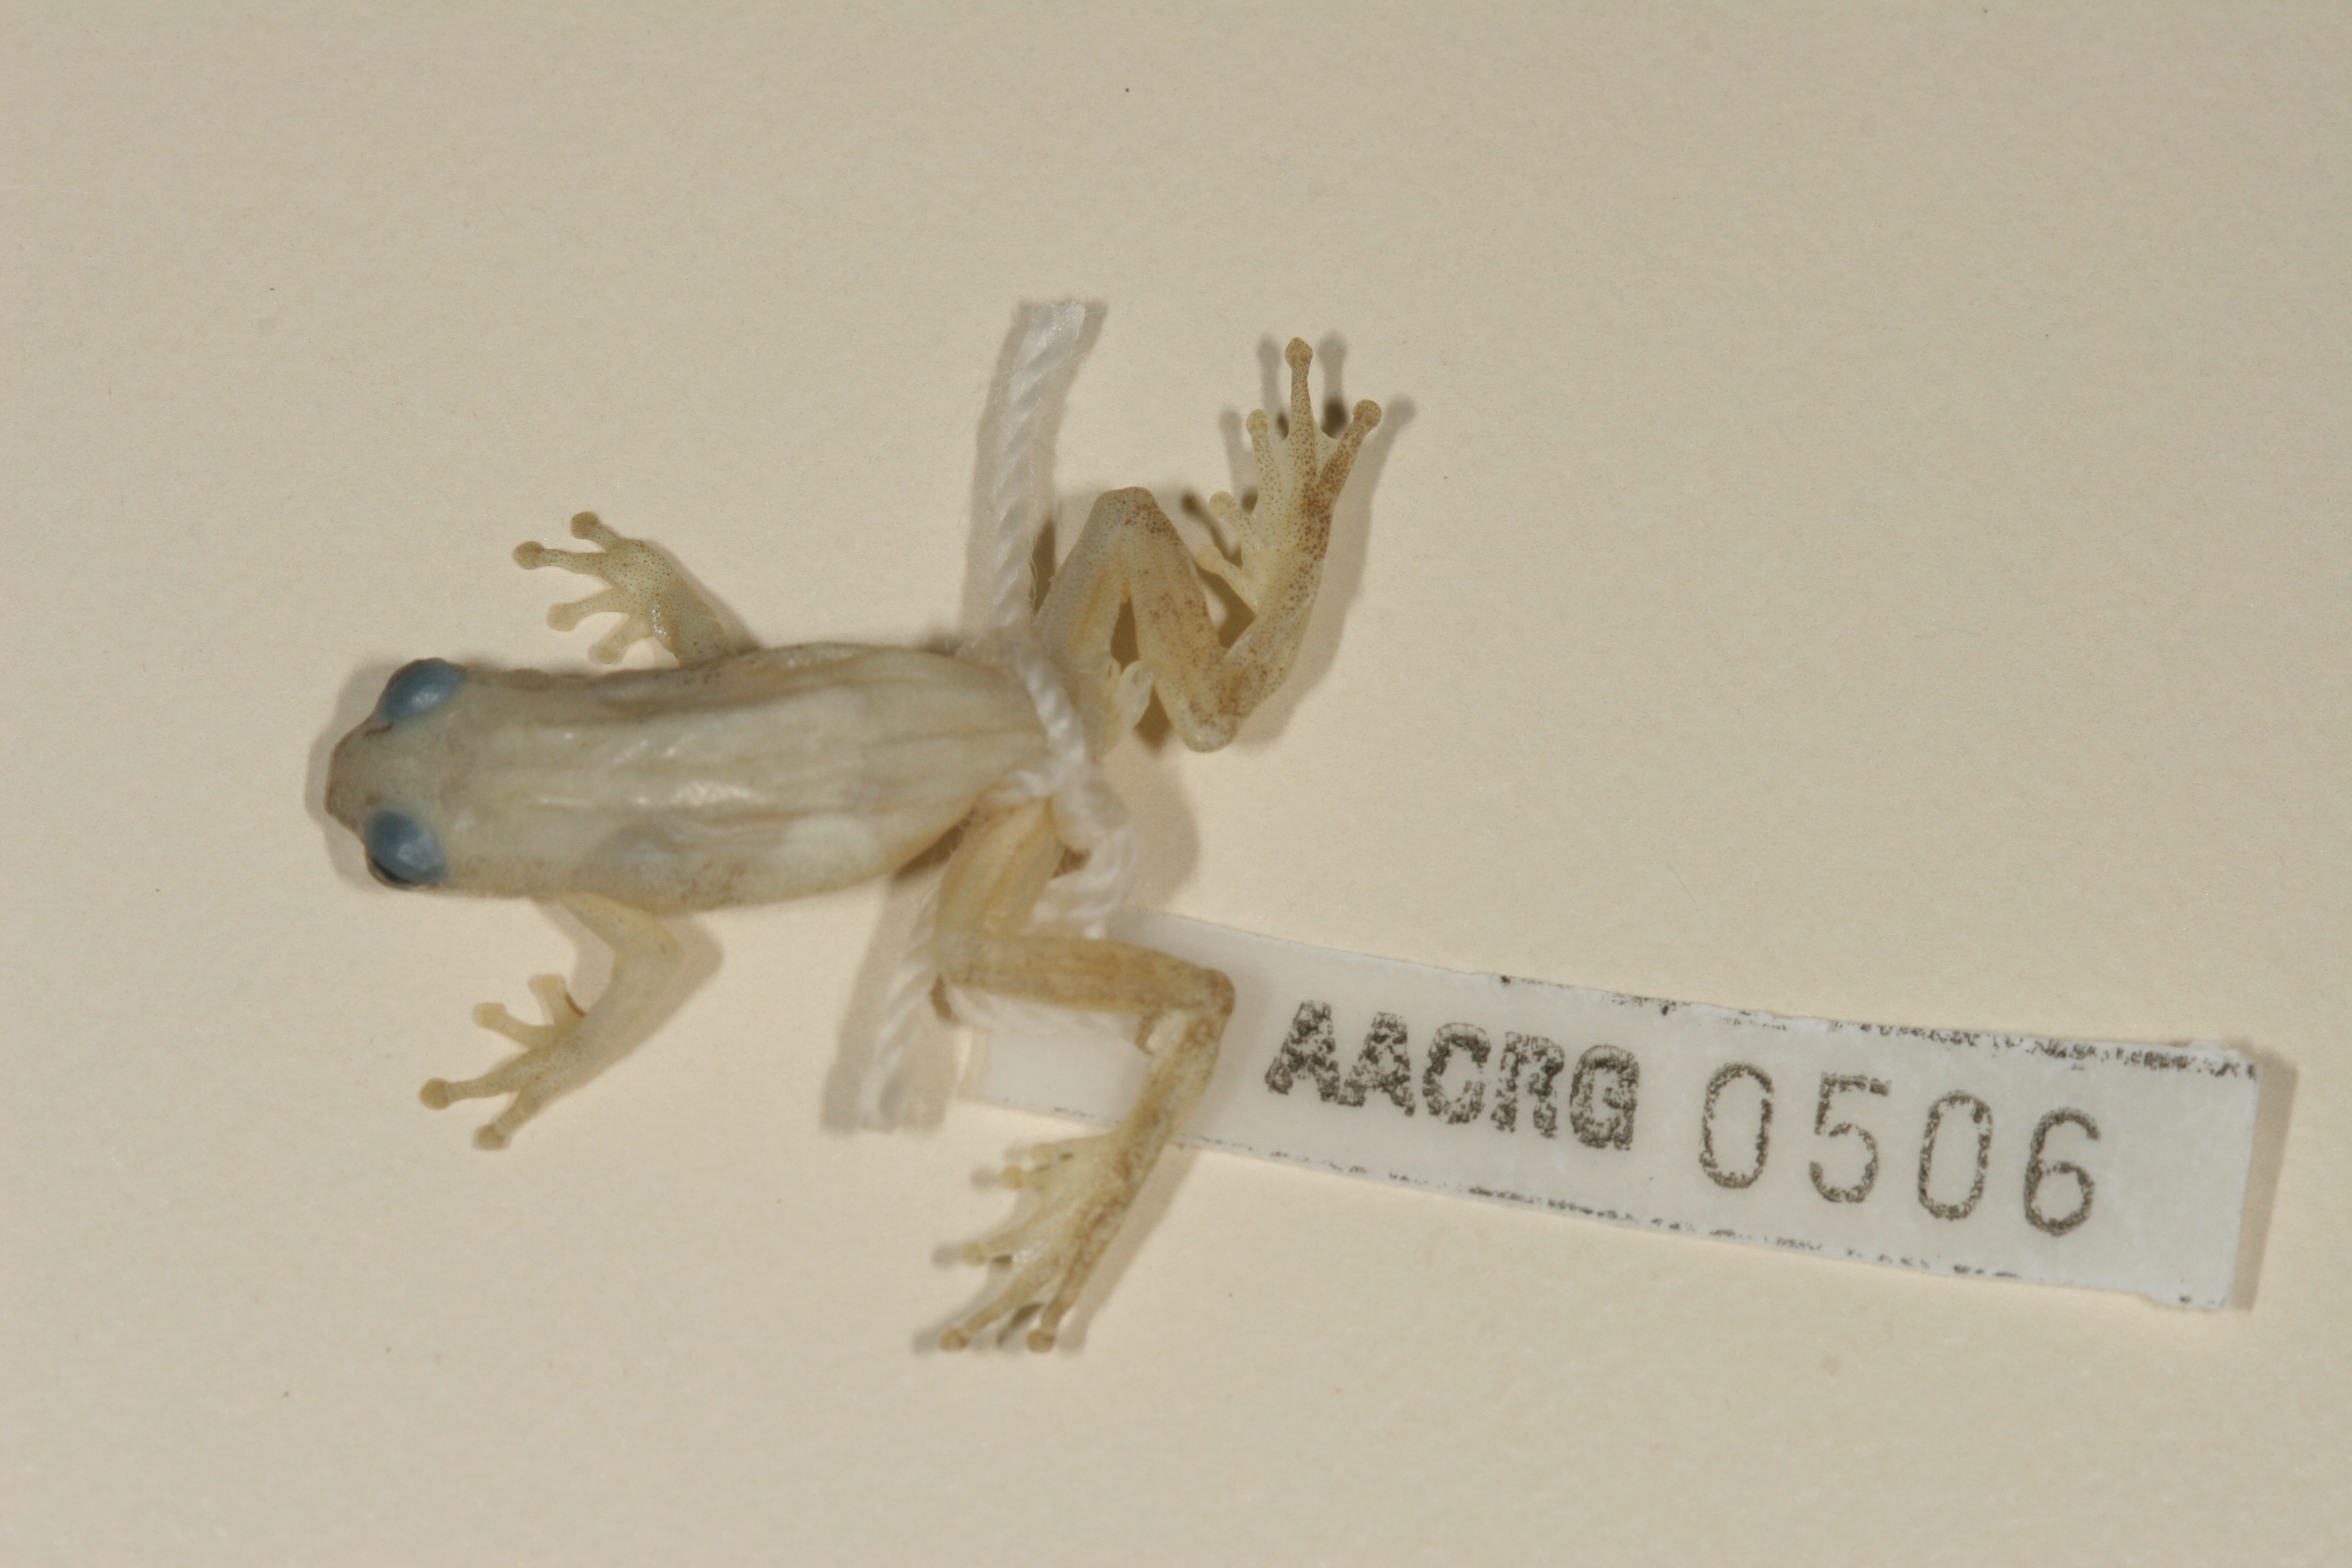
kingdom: Animalia
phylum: Chordata
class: Amphibia
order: Anura
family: Hyperoliidae
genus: Afrixalus
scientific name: Afrixalus delicatus
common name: Delicate leaf-folding frog
